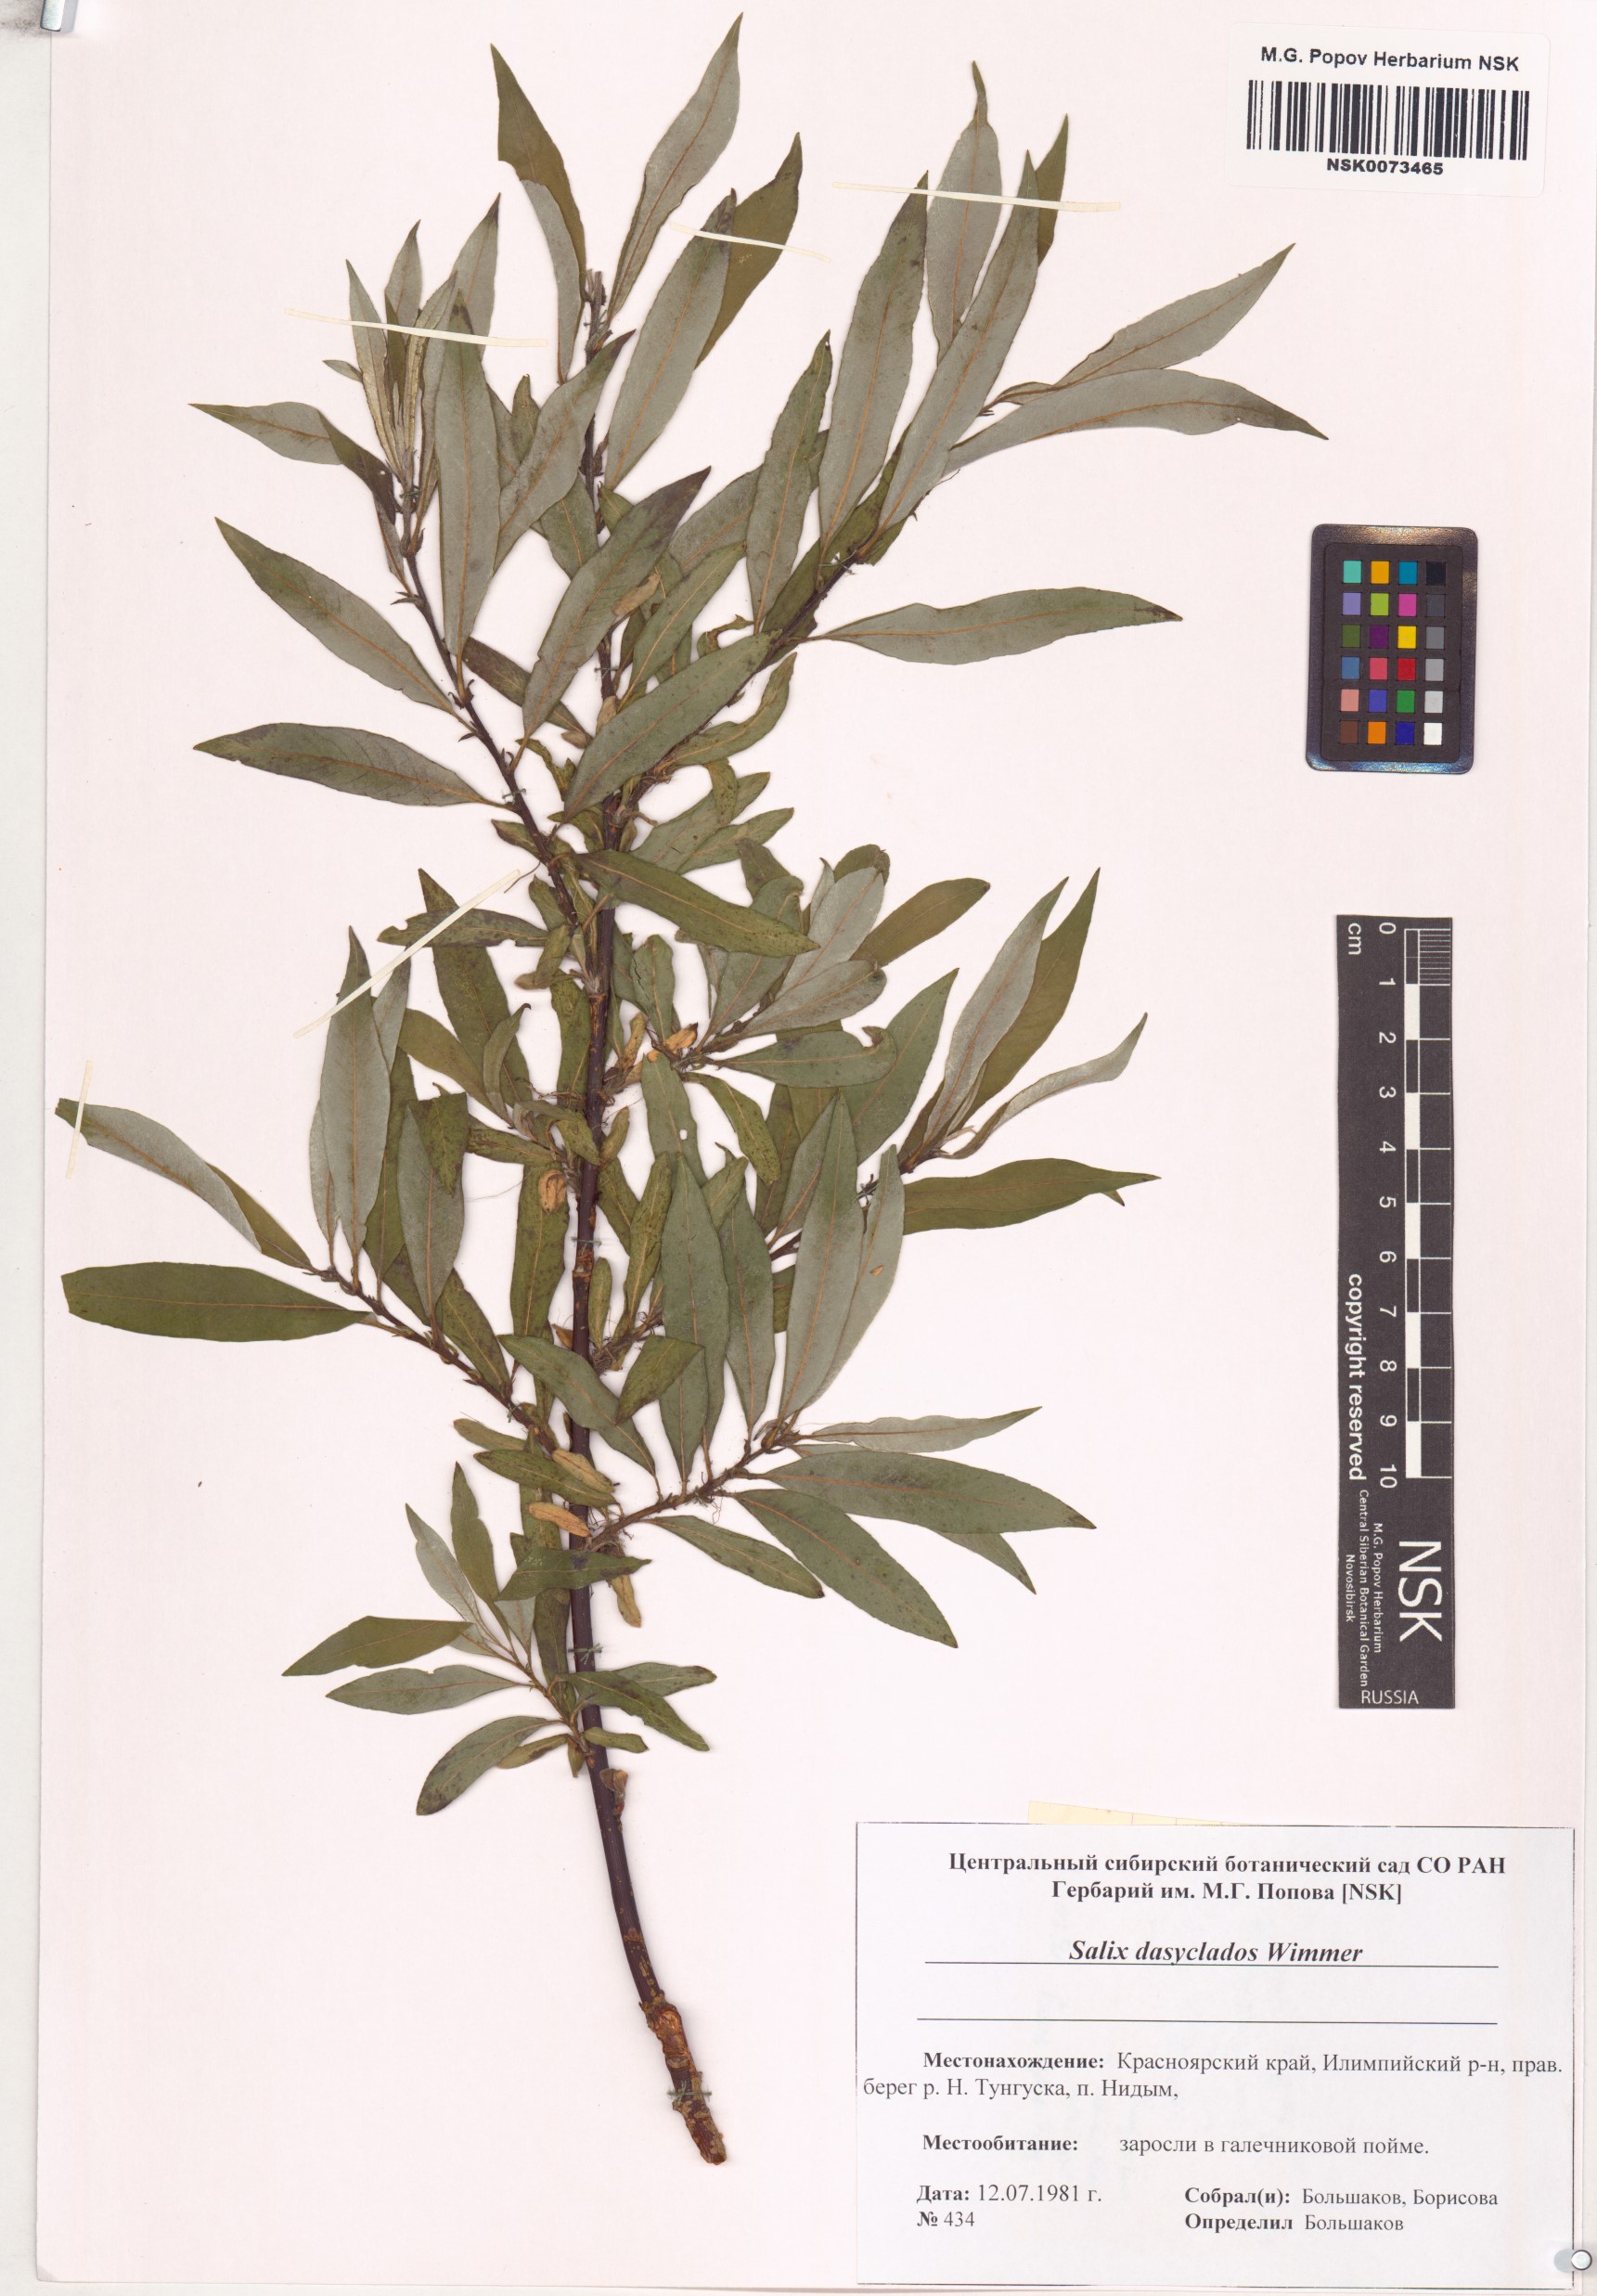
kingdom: Plantae
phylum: Tracheophyta
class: Magnoliopsida
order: Malpighiales
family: Salicaceae
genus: Salix
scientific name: Salix gmelinii
